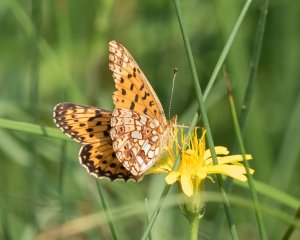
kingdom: Animalia
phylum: Arthropoda
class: Insecta
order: Lepidoptera
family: Nymphalidae
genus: Boloria
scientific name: Boloria selene
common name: Silver-bordered Fritillary
